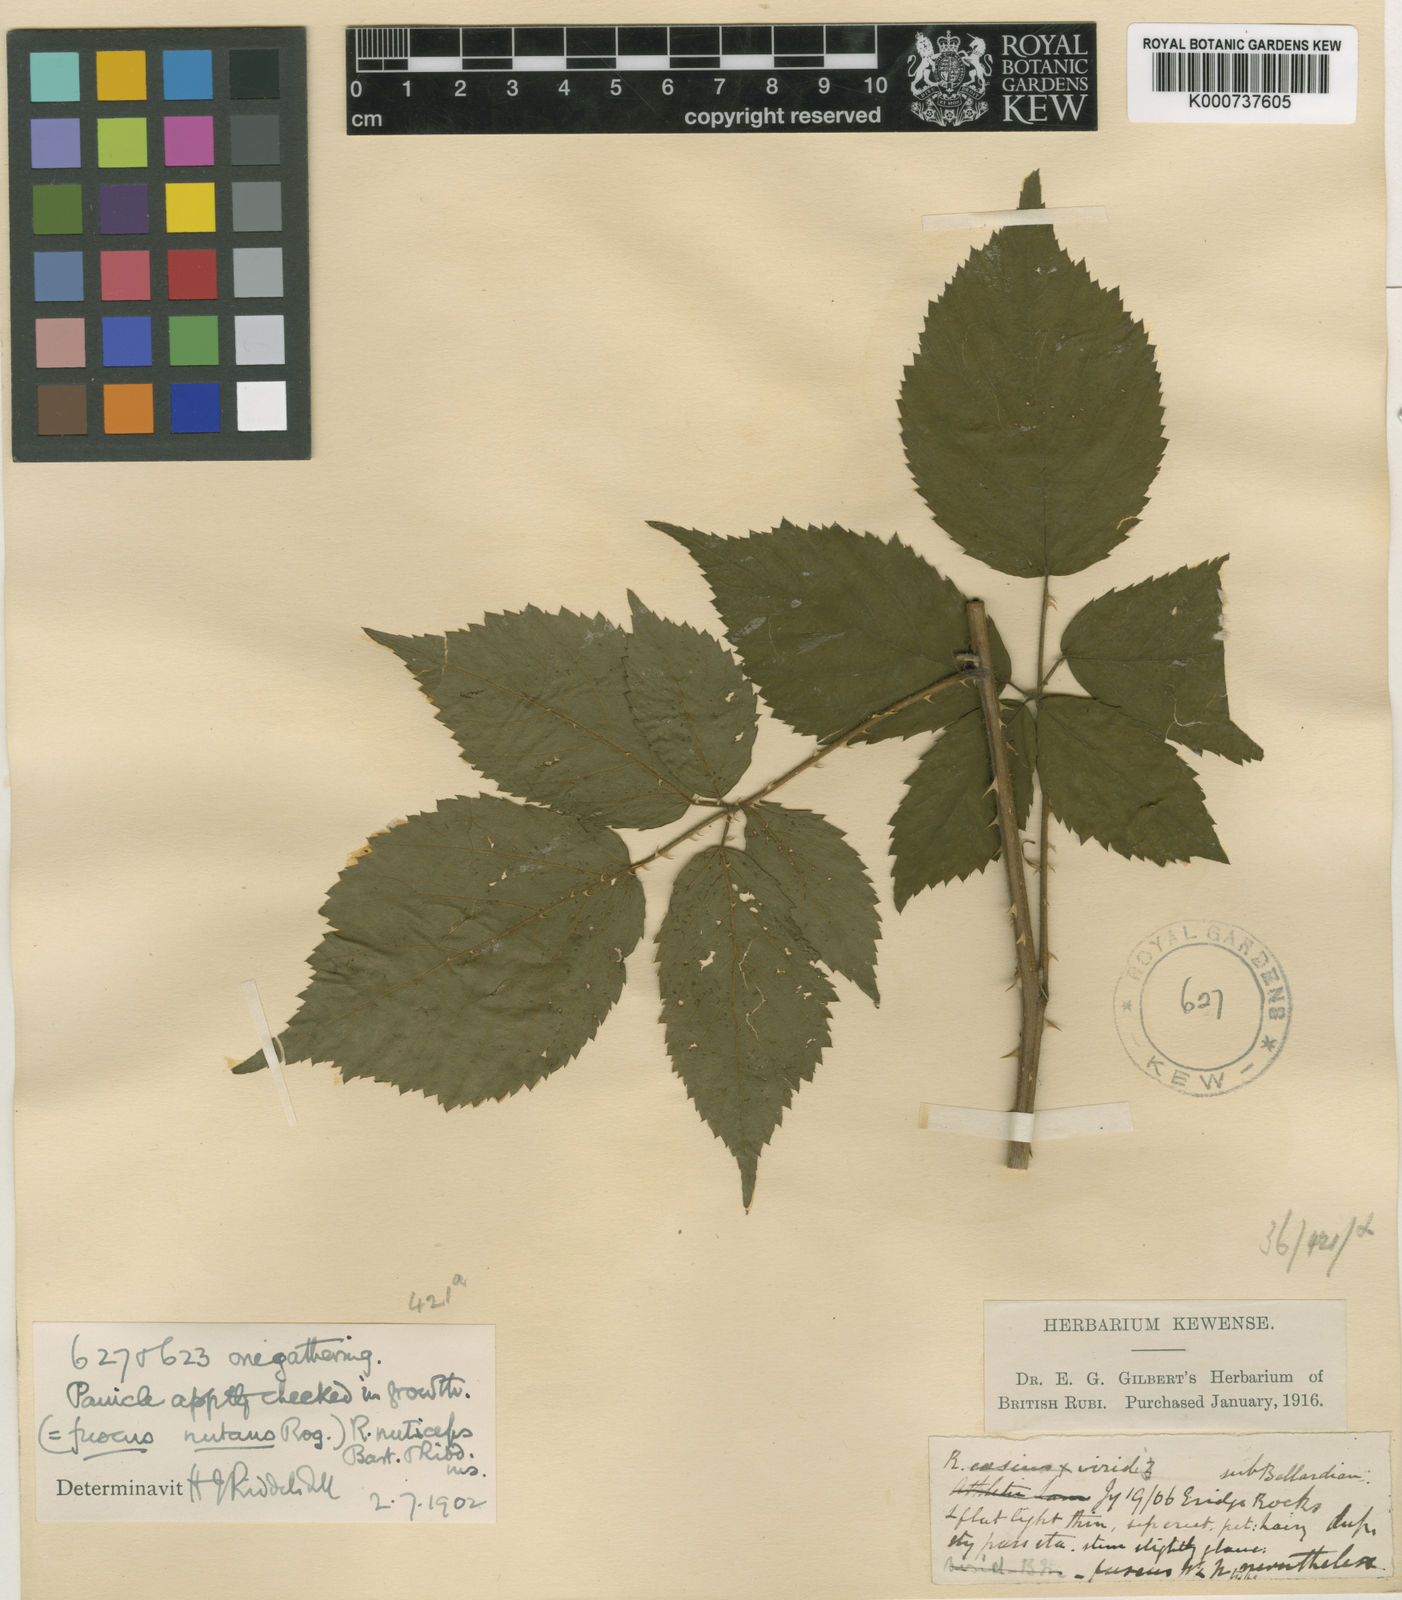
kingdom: Plantae
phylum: Tracheophyta
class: Magnoliopsida
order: Rosales
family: Rosaceae
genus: Rubus
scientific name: Rubus
